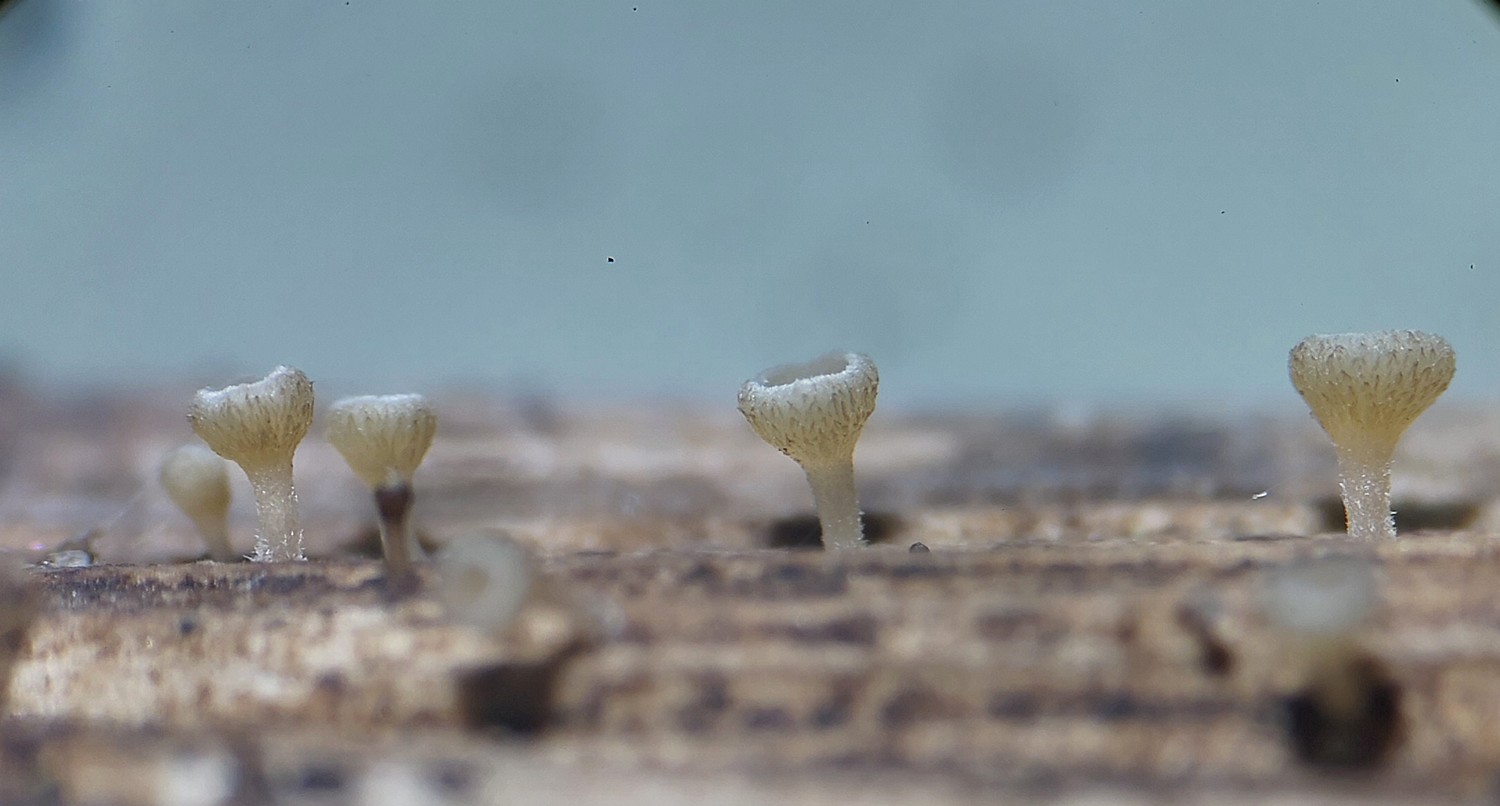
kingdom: Fungi
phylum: Ascomycota
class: Leotiomycetes
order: Helotiales
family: Helotiaceae
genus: Cyathicula
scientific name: Cyathicula cyathoidea
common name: pokal-stilkskive
